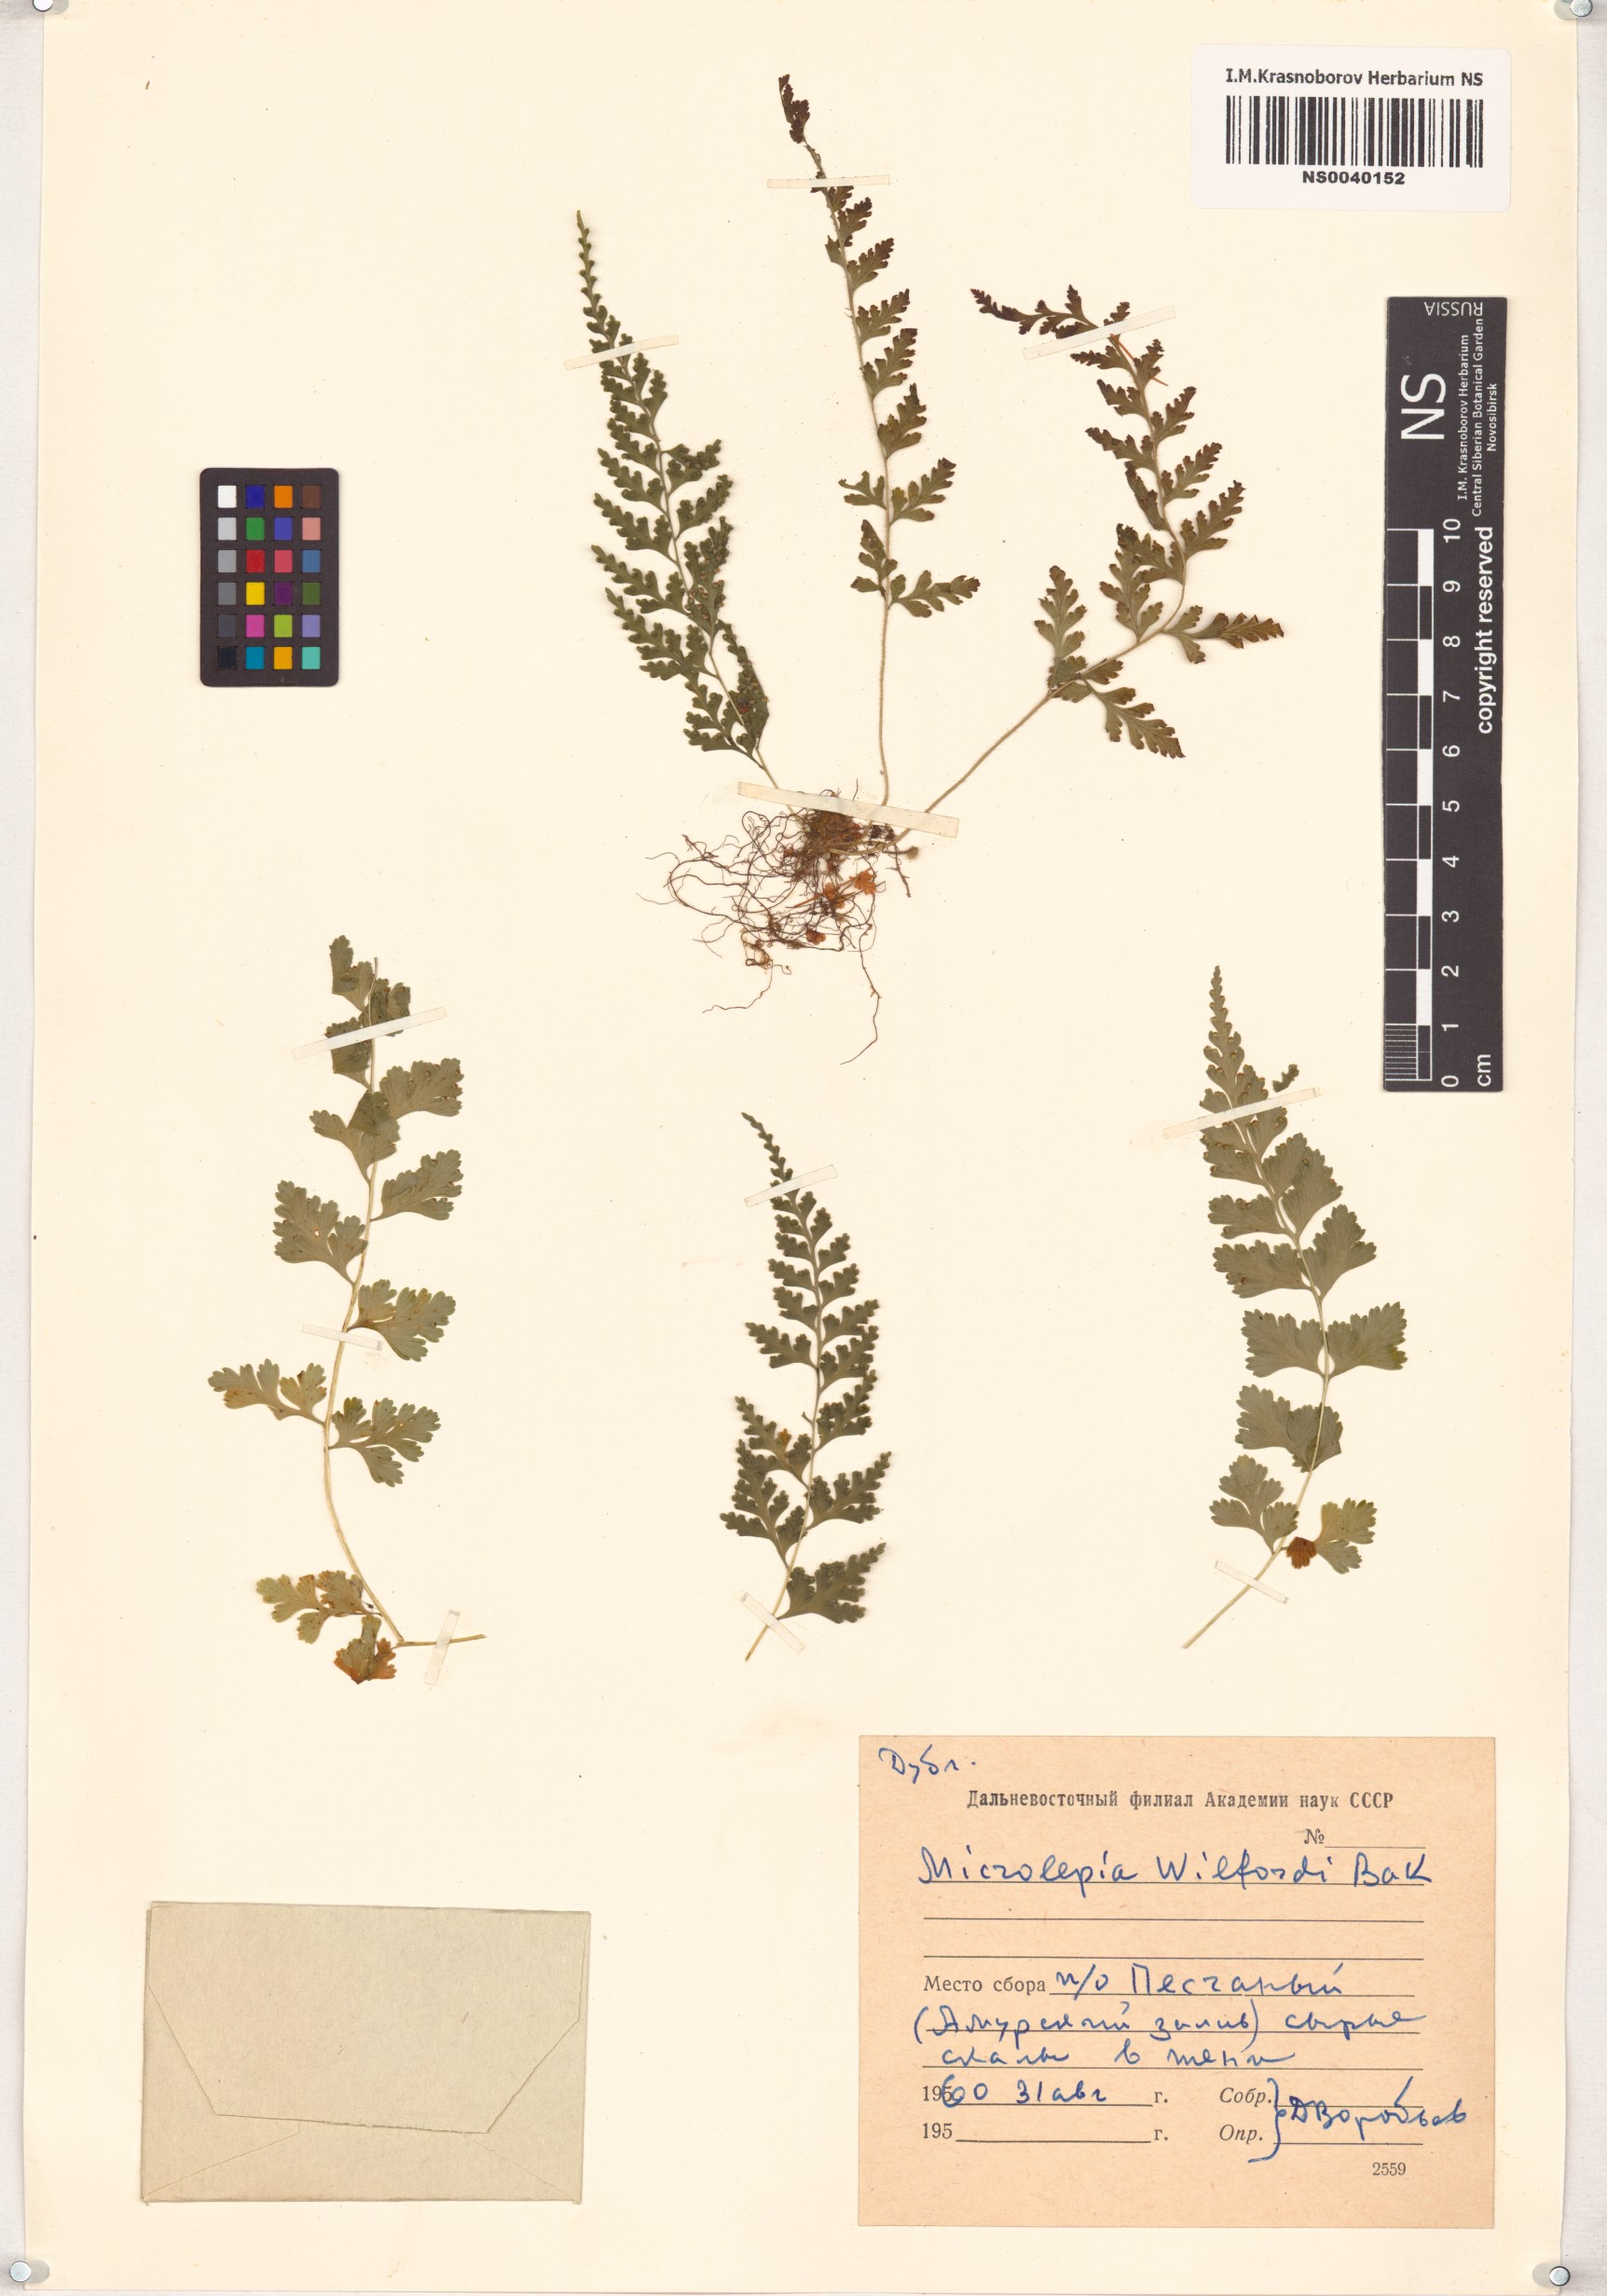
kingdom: Plantae
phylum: Tracheophyta
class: Polypodiopsida
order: Polypodiales
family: Dennstaedtiaceae
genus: Sitobolium
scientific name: Sitobolium wilfordii
